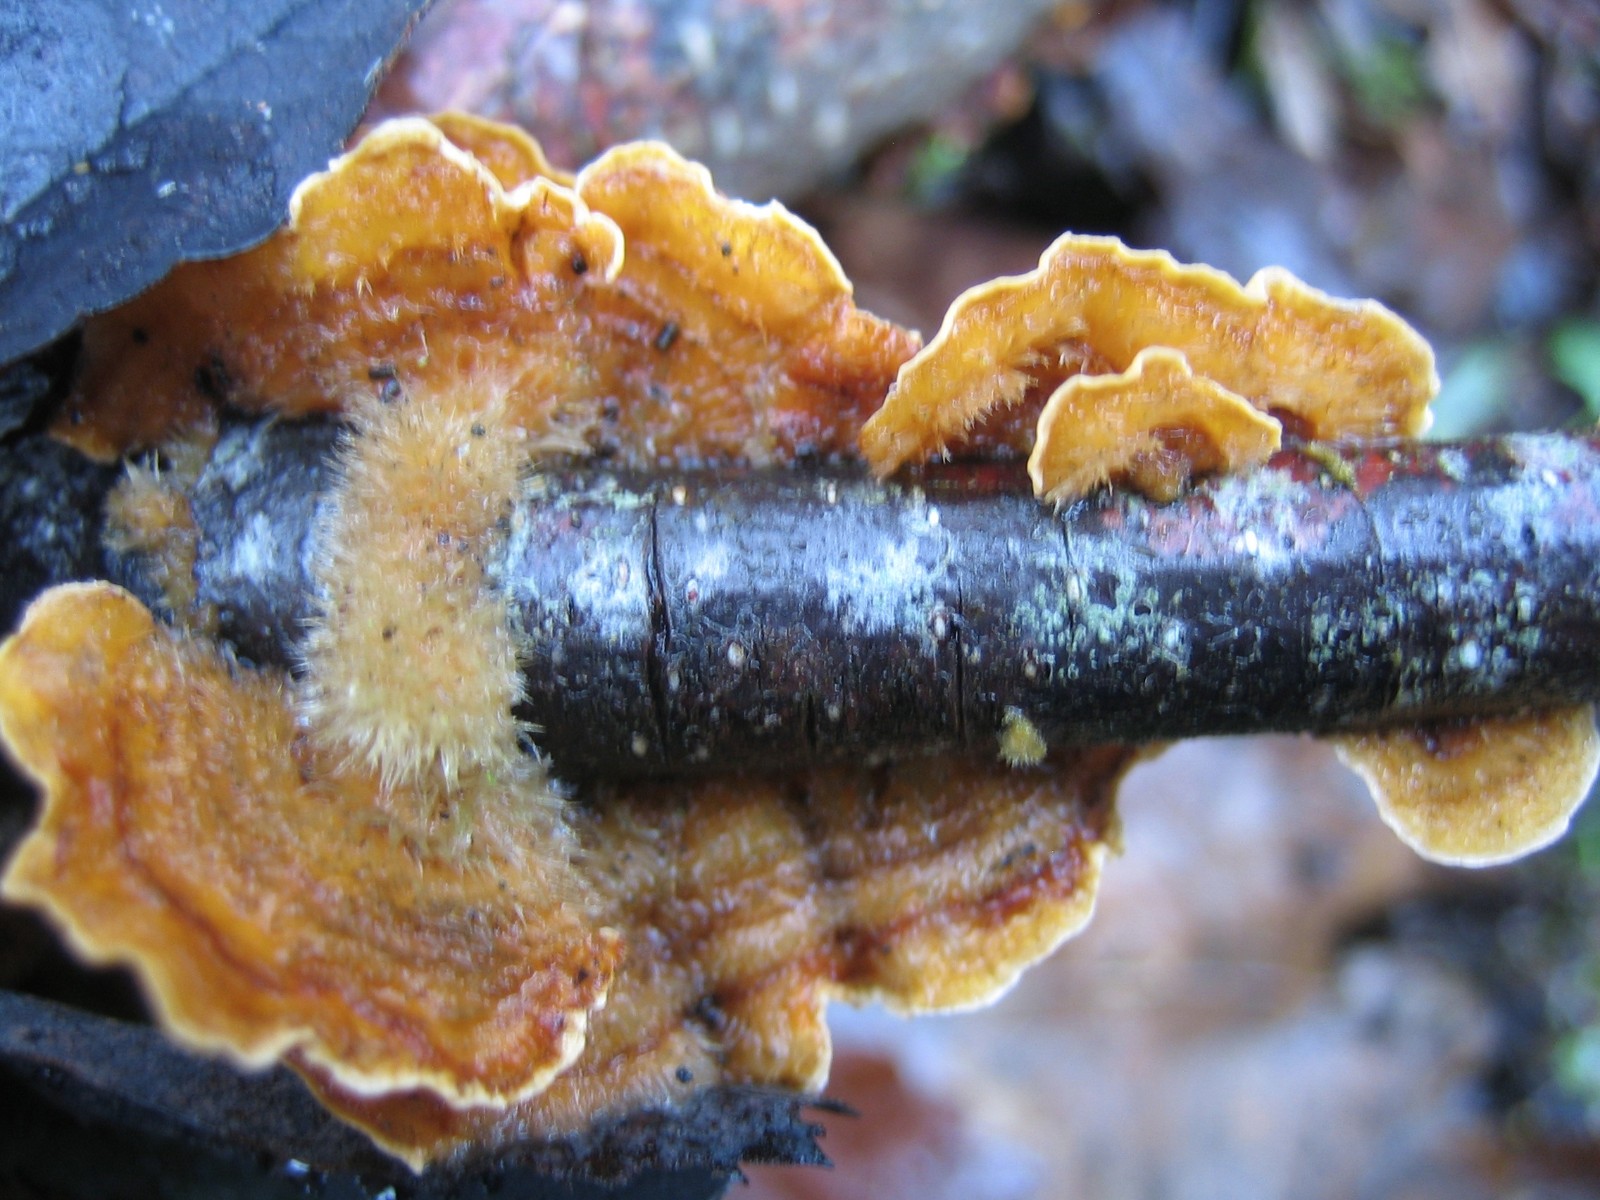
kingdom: Fungi
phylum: Basidiomycota
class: Agaricomycetes
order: Russulales
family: Stereaceae
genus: Stereum
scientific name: Stereum hirsutum
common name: håret lædersvamp
